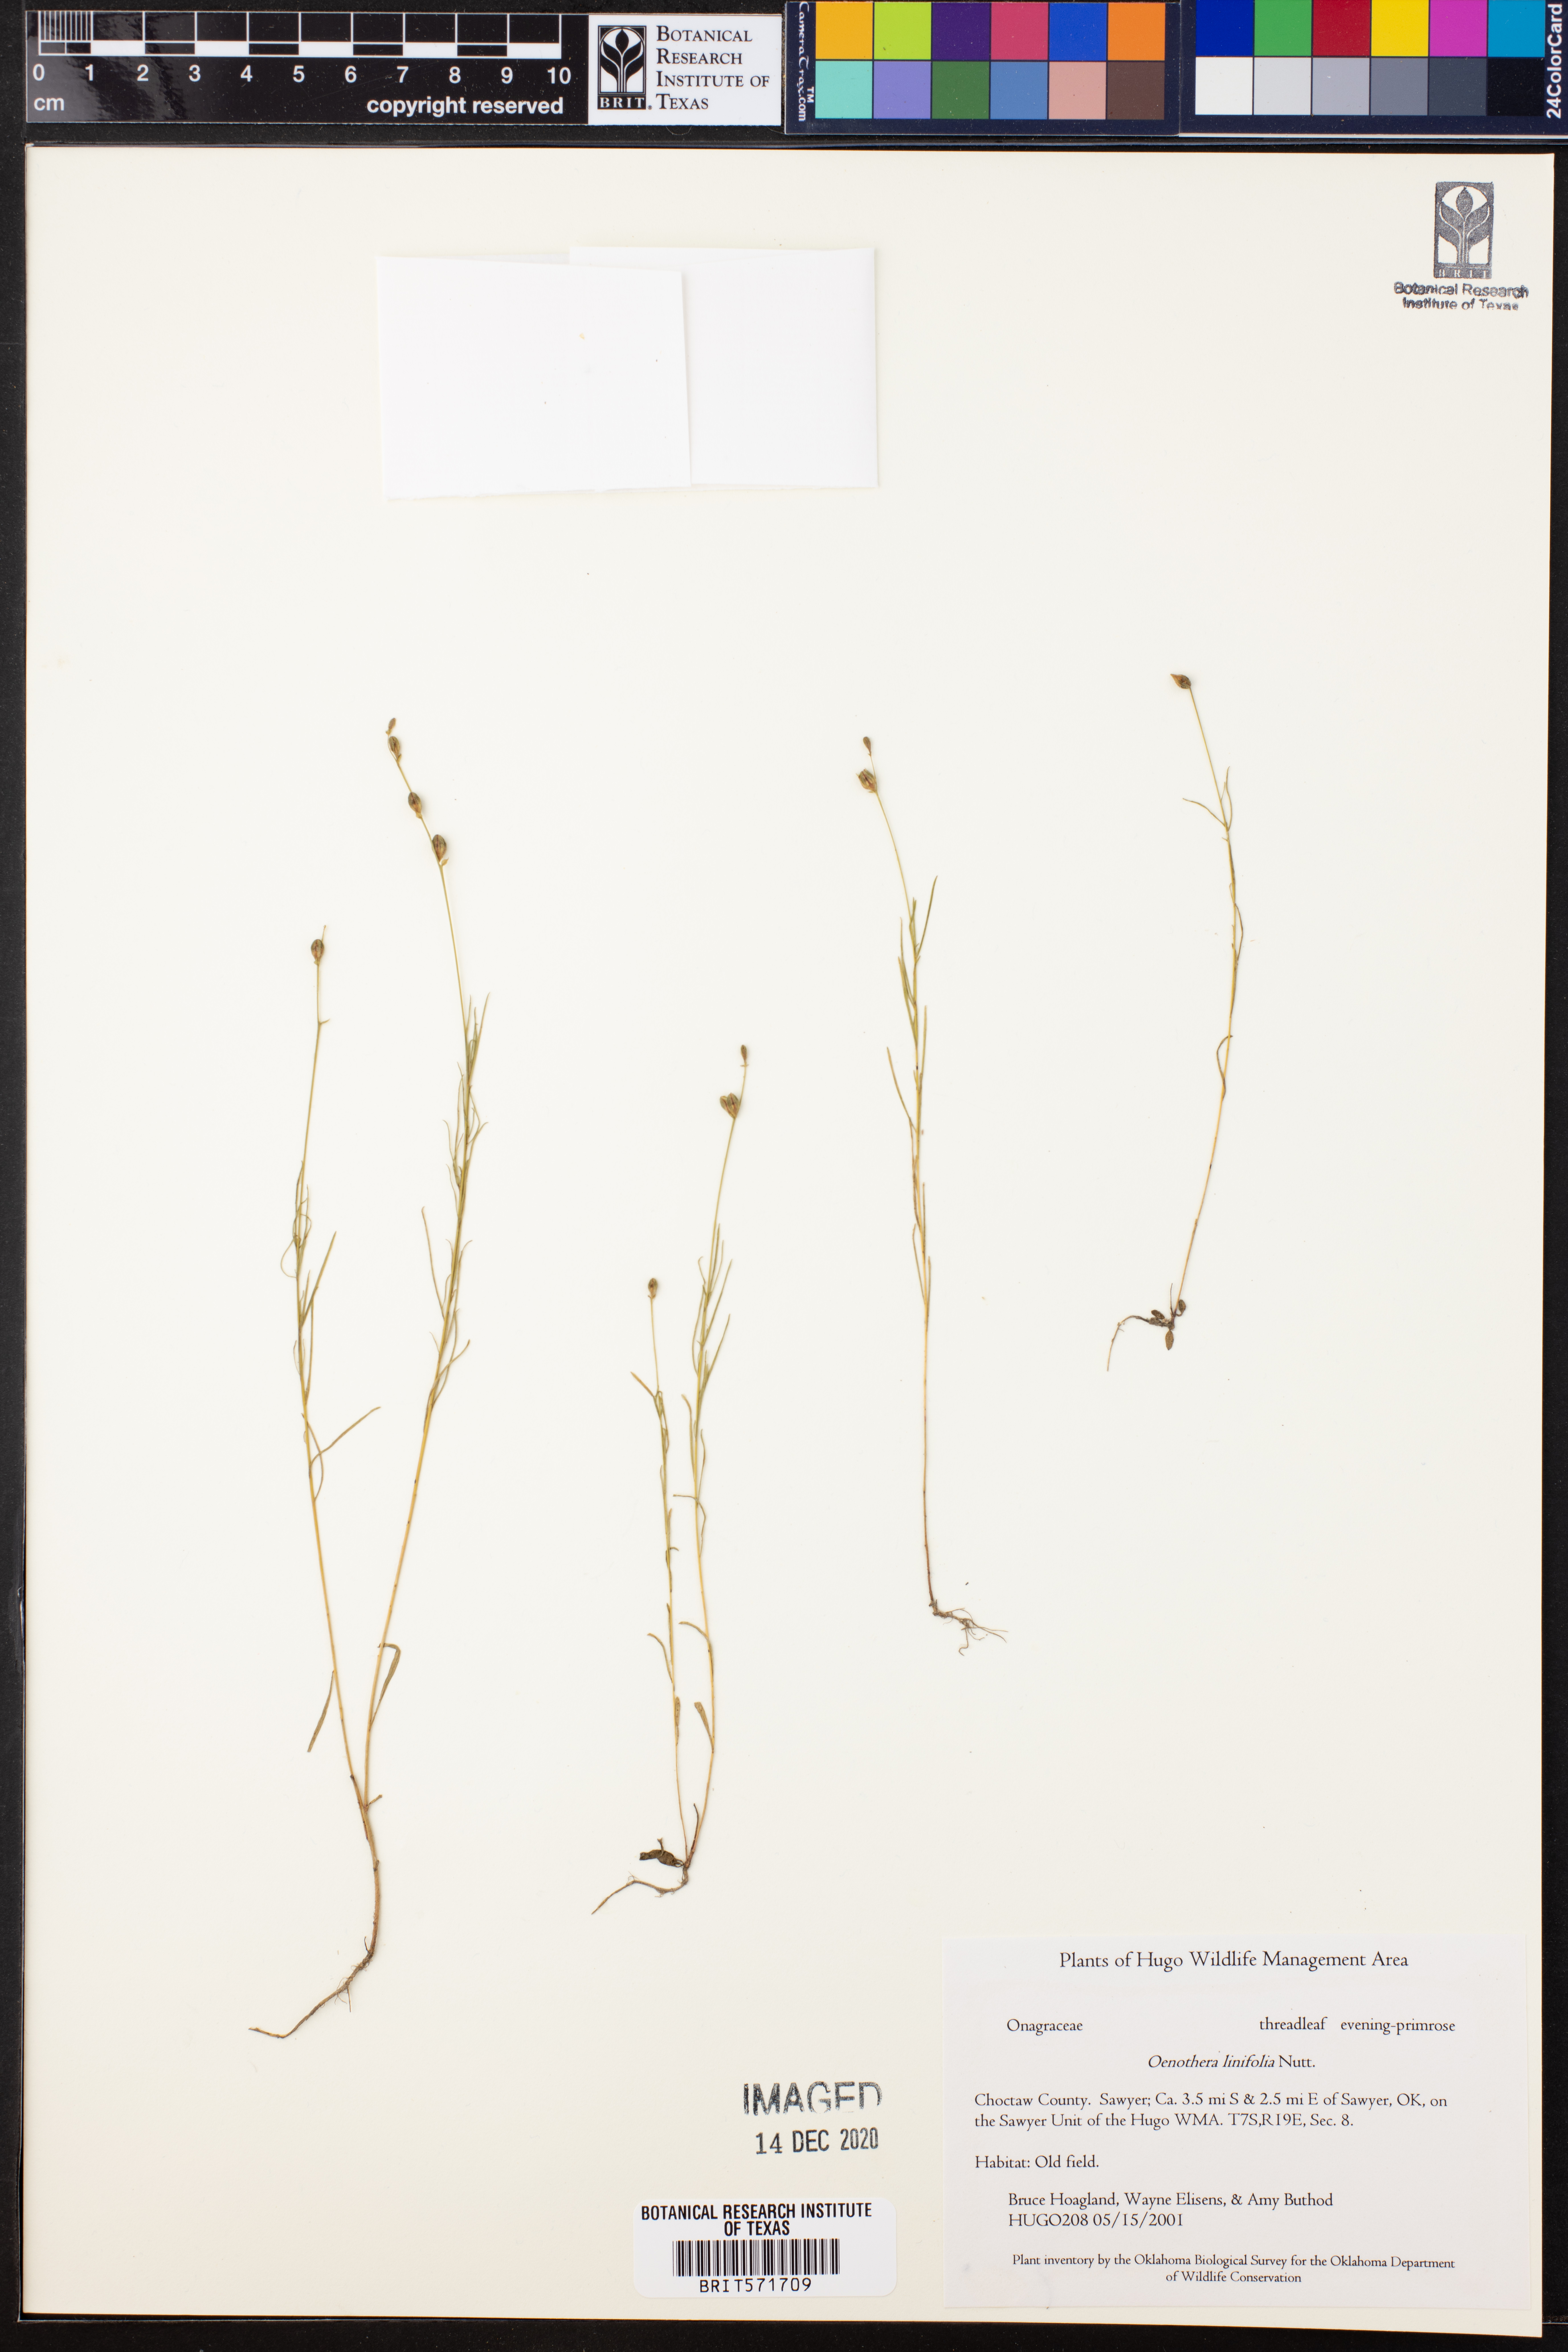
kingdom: Plantae
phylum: Tracheophyta
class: Magnoliopsida
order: Myrtales
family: Onagraceae
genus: Oenothera
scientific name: Oenothera linifolia
